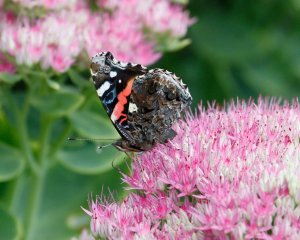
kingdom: Animalia
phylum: Arthropoda
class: Insecta
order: Lepidoptera
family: Nymphalidae
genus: Vanessa
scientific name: Vanessa atalanta
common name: Red Admiral
